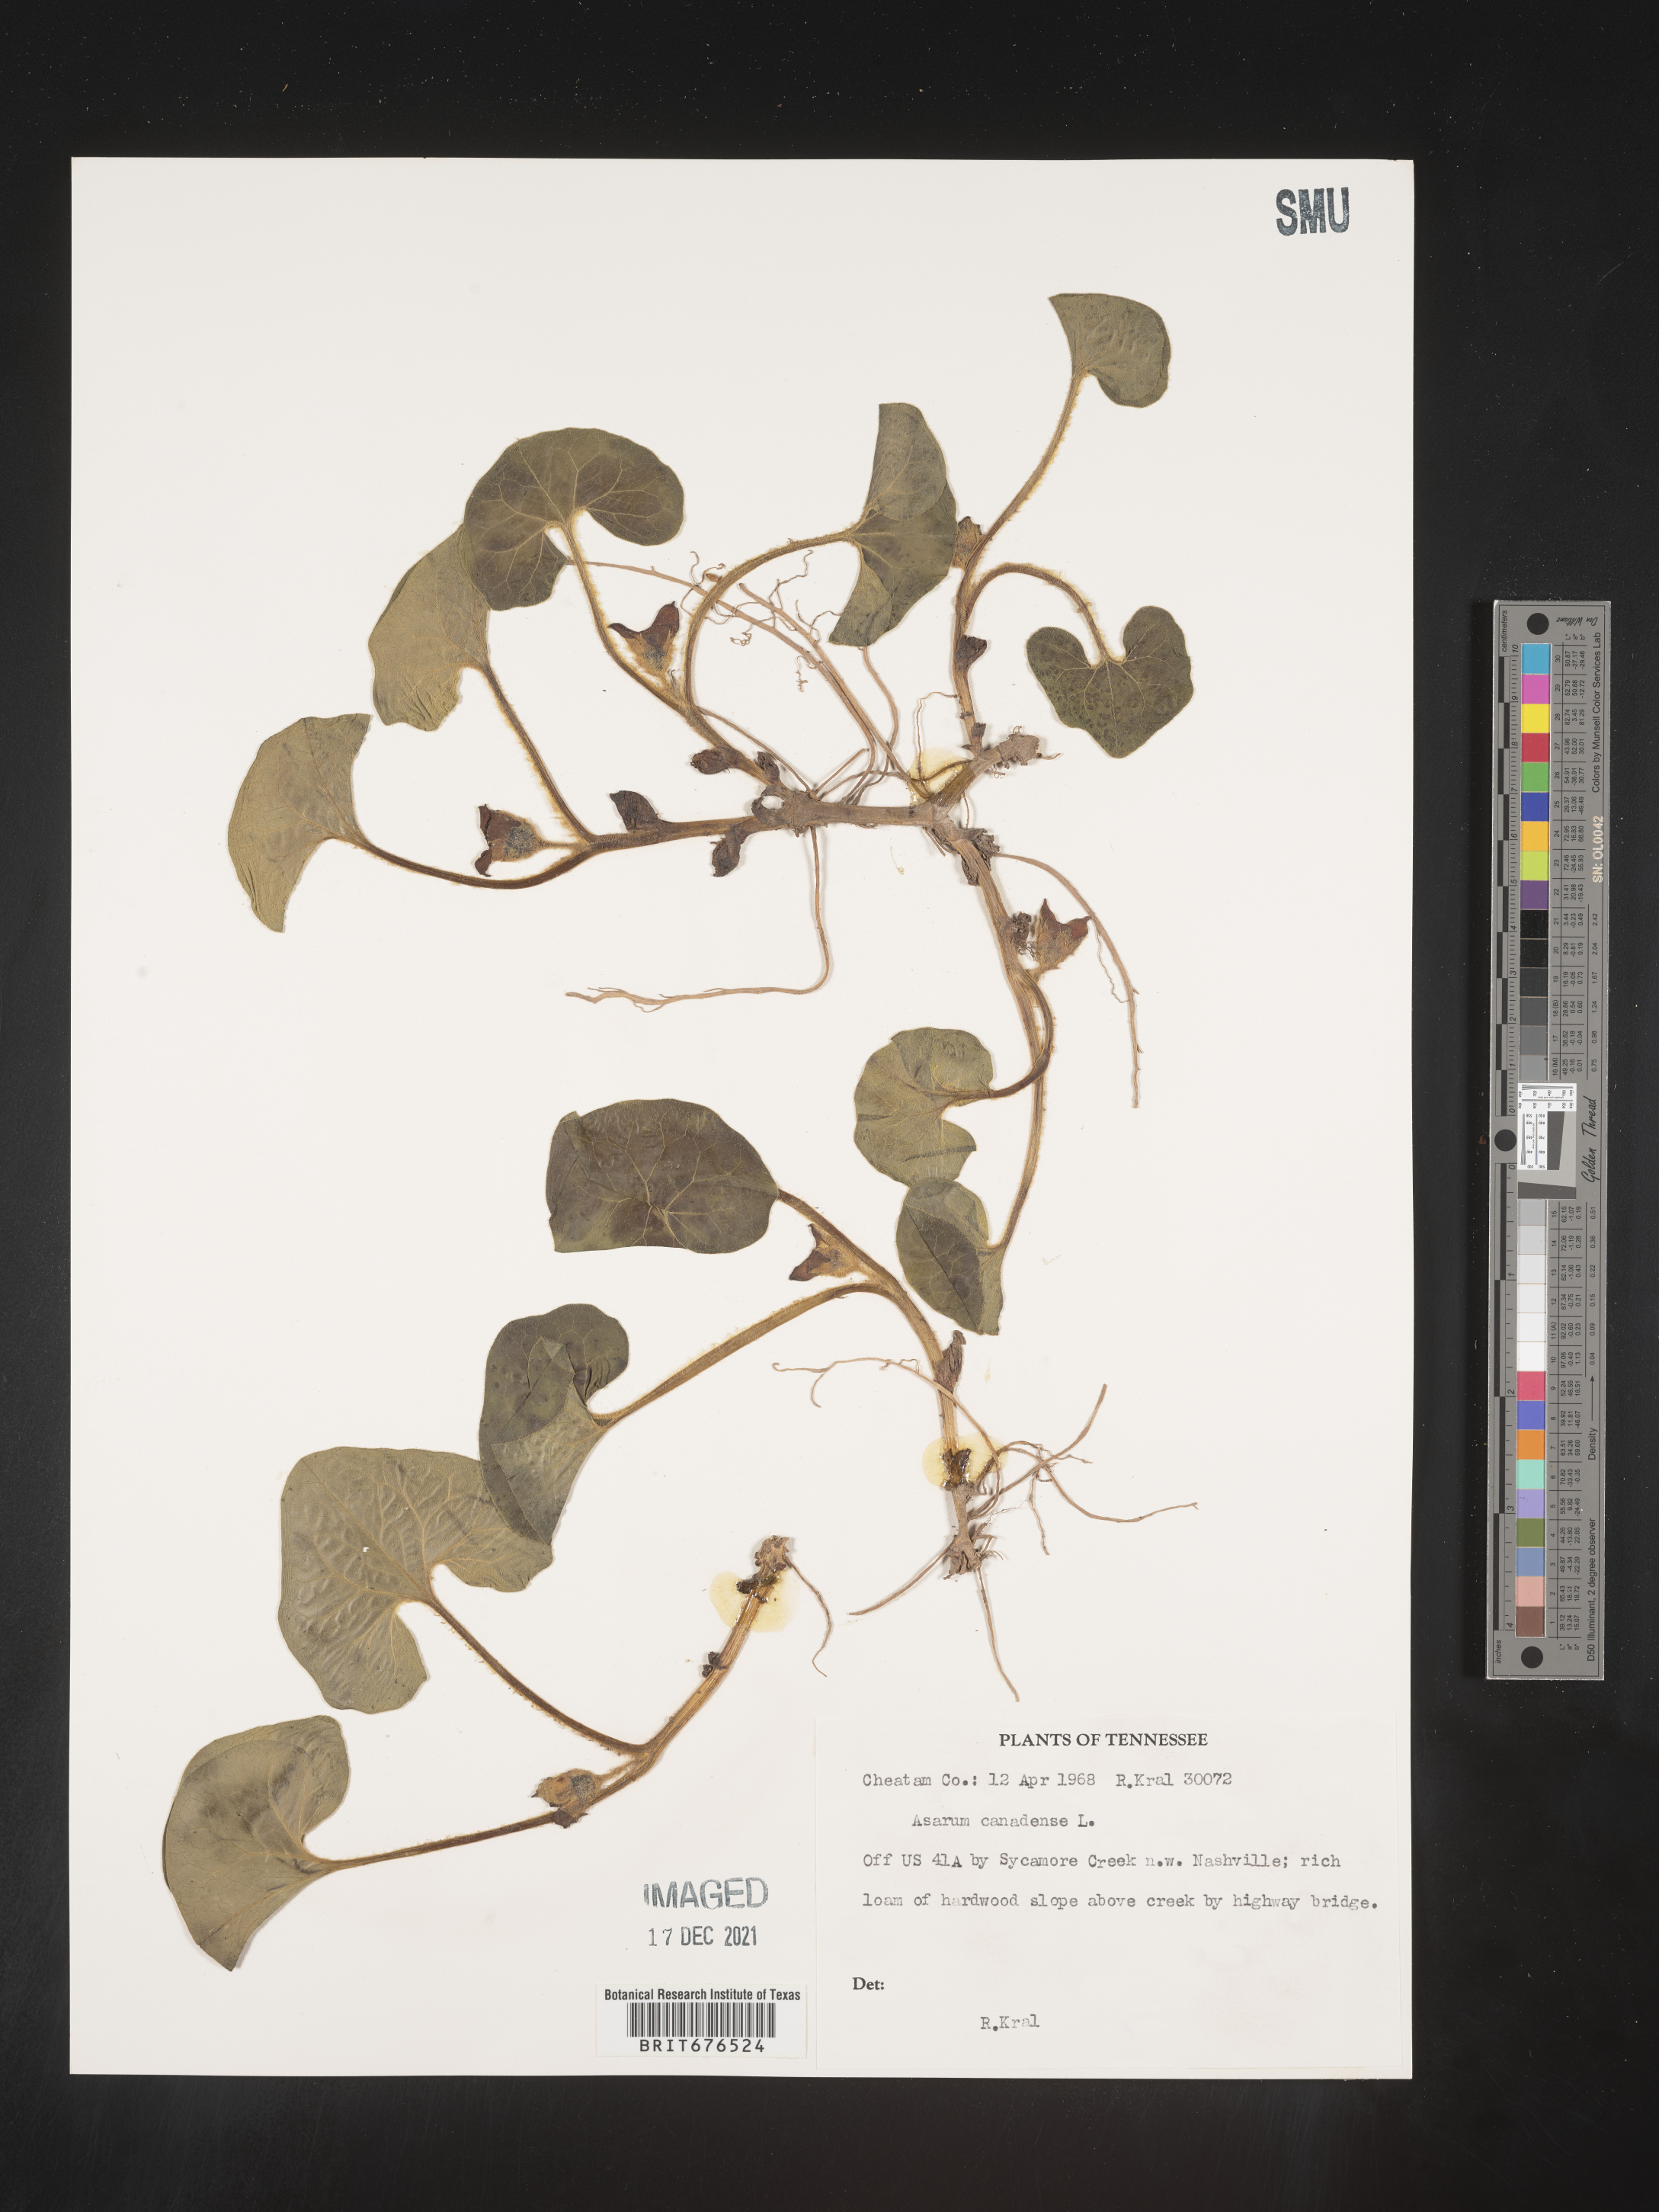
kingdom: Plantae
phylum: Tracheophyta
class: Magnoliopsida
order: Piperales
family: Aristolochiaceae
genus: Asarum
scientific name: Asarum canadense
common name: Wild ginger
